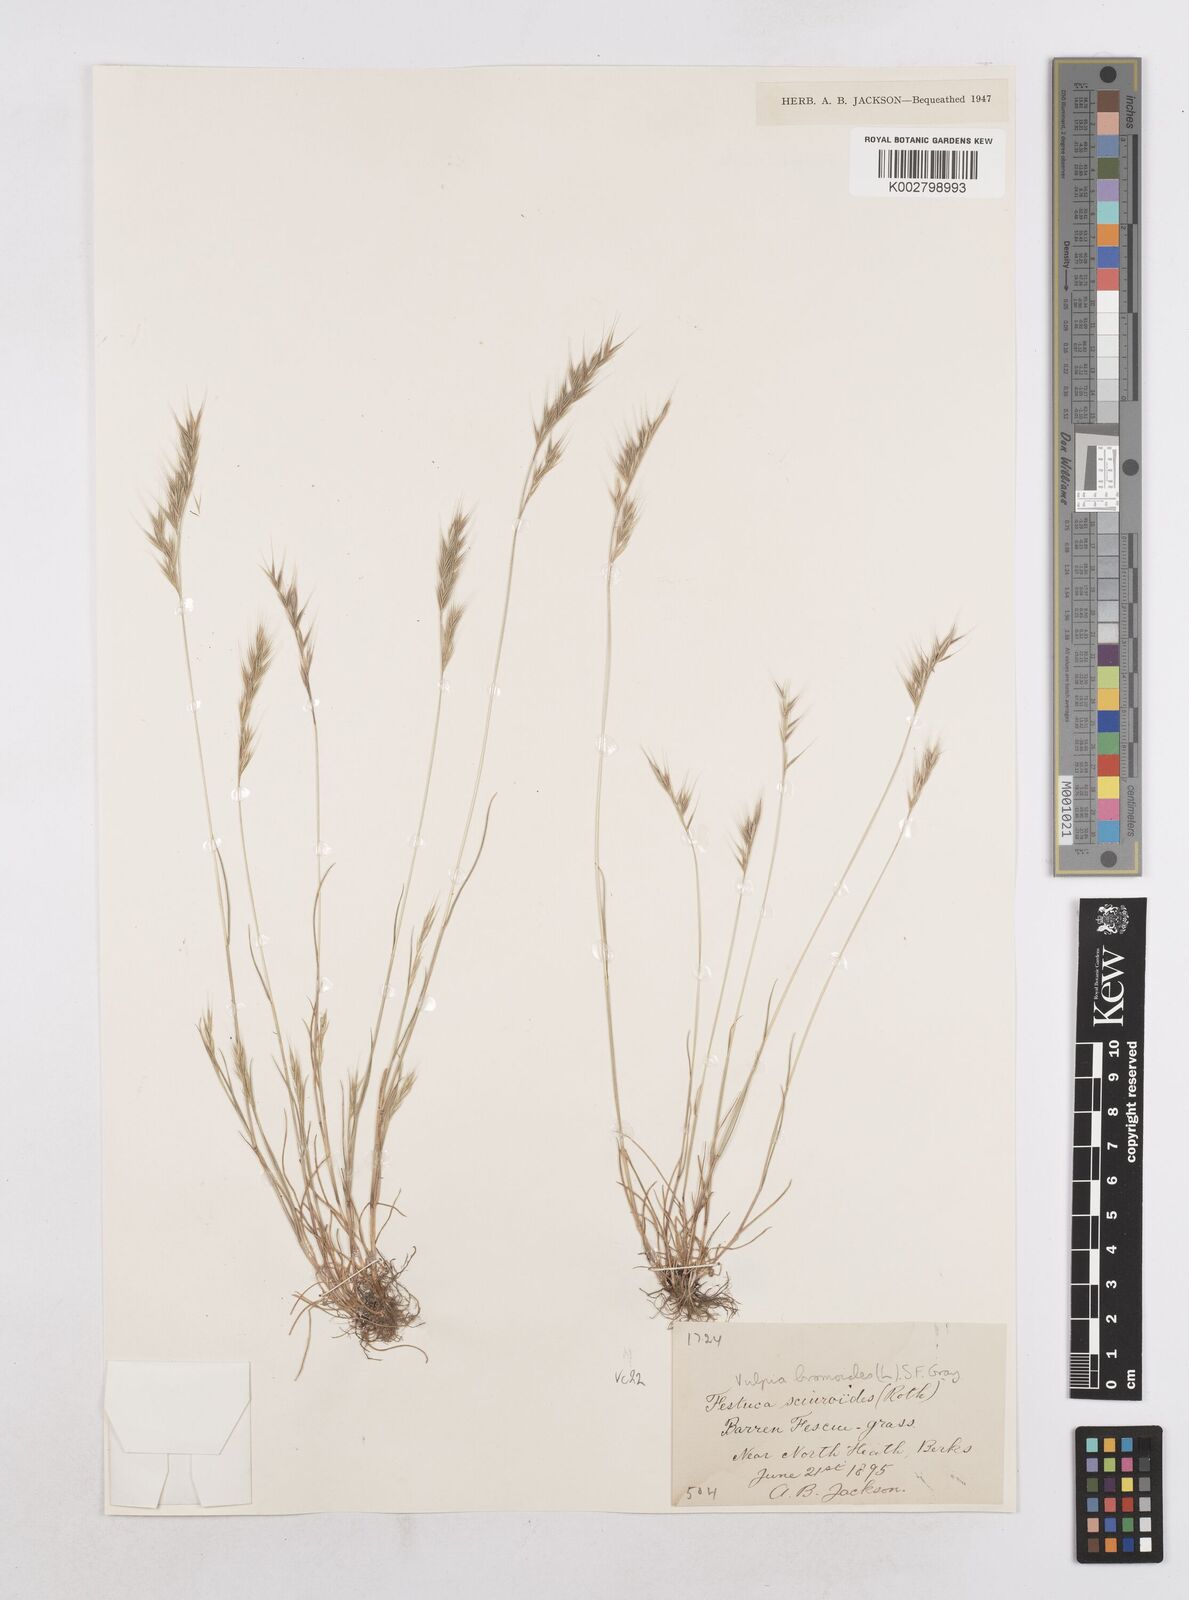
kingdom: Plantae
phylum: Tracheophyta
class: Liliopsida
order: Poales
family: Poaceae
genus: Festuca
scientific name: Festuca bromoides
